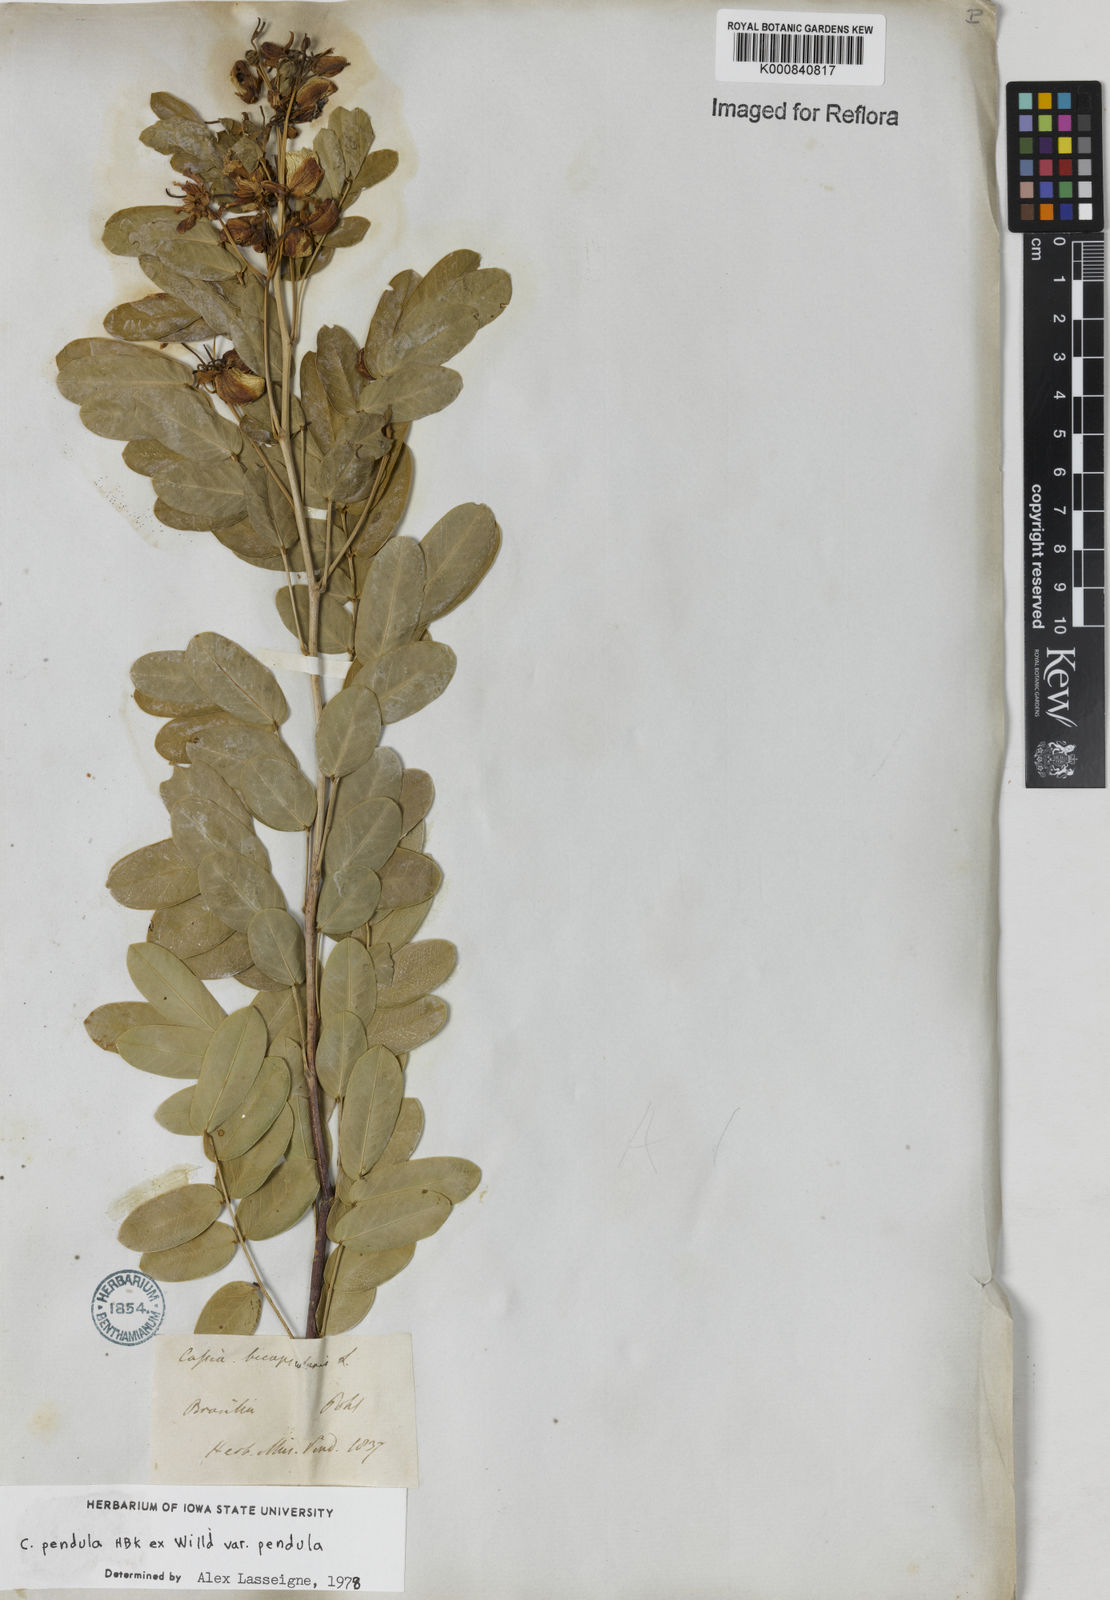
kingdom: Plantae
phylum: Tracheophyta
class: Magnoliopsida
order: Fabales
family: Fabaceae
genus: Senna
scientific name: Senna pendula
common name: Easter cassia
